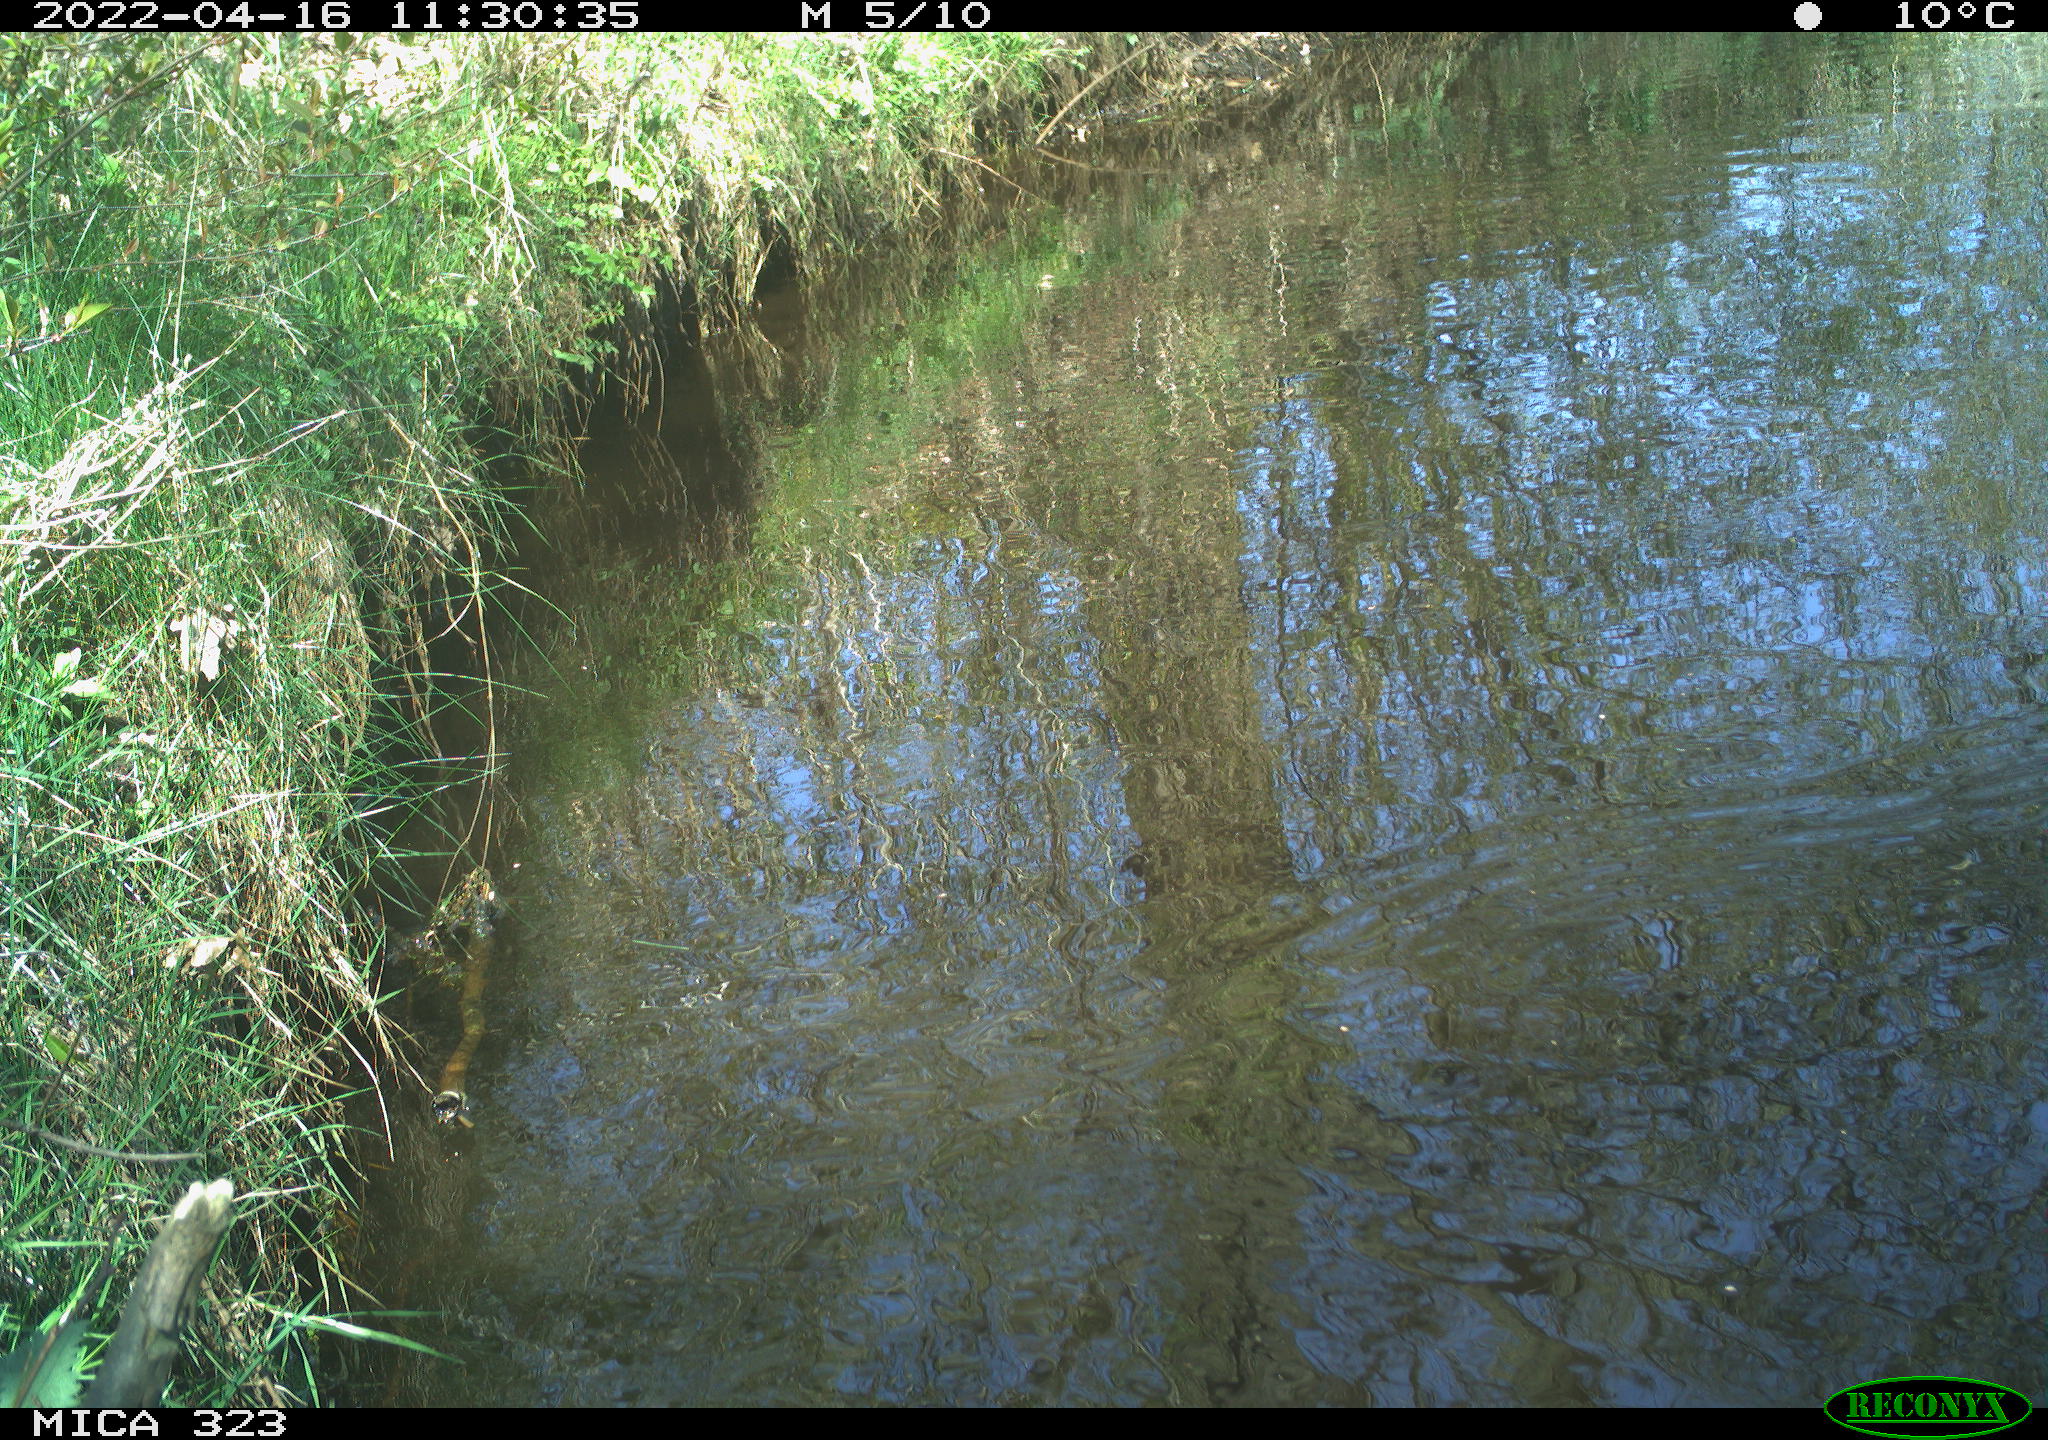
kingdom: Animalia
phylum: Chordata
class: Aves
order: Gruiformes
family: Rallidae
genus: Gallinula
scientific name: Gallinula chloropus
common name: Common moorhen
